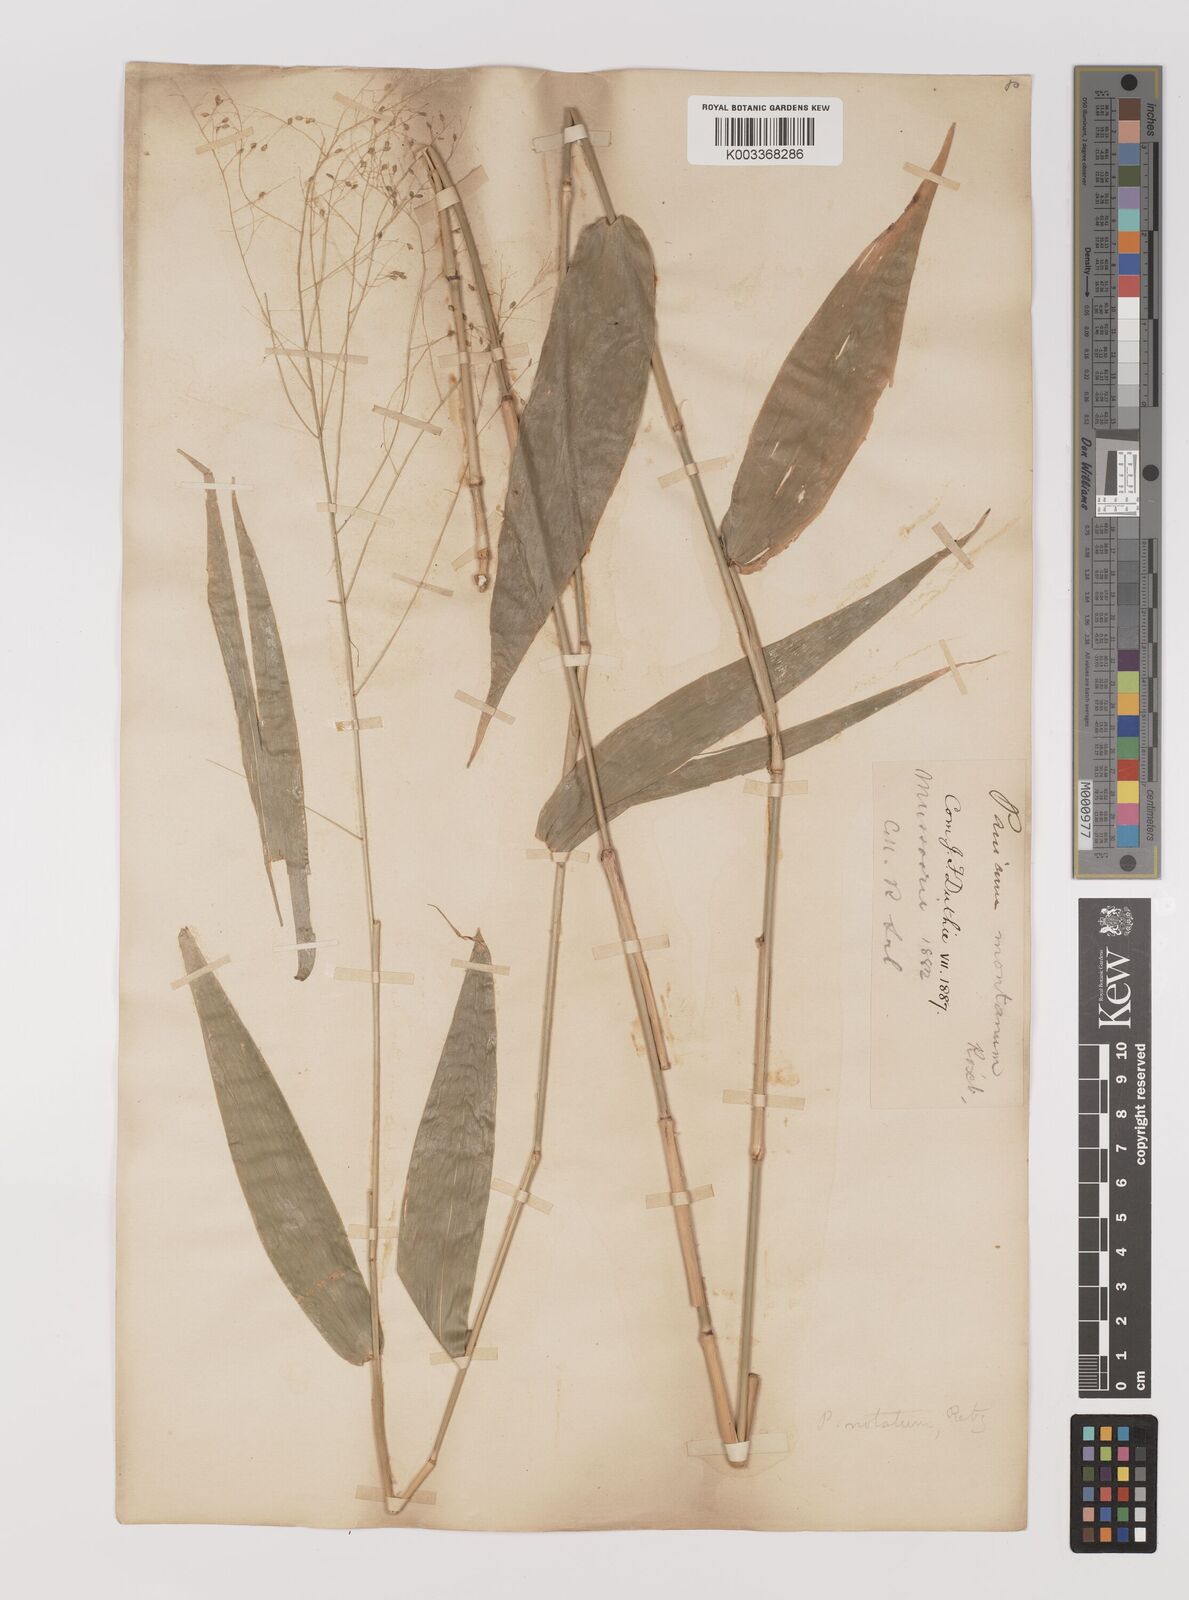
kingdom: Plantae
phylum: Tracheophyta
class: Liliopsida
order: Poales
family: Poaceae
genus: Panicum
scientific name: Panicum notatum
